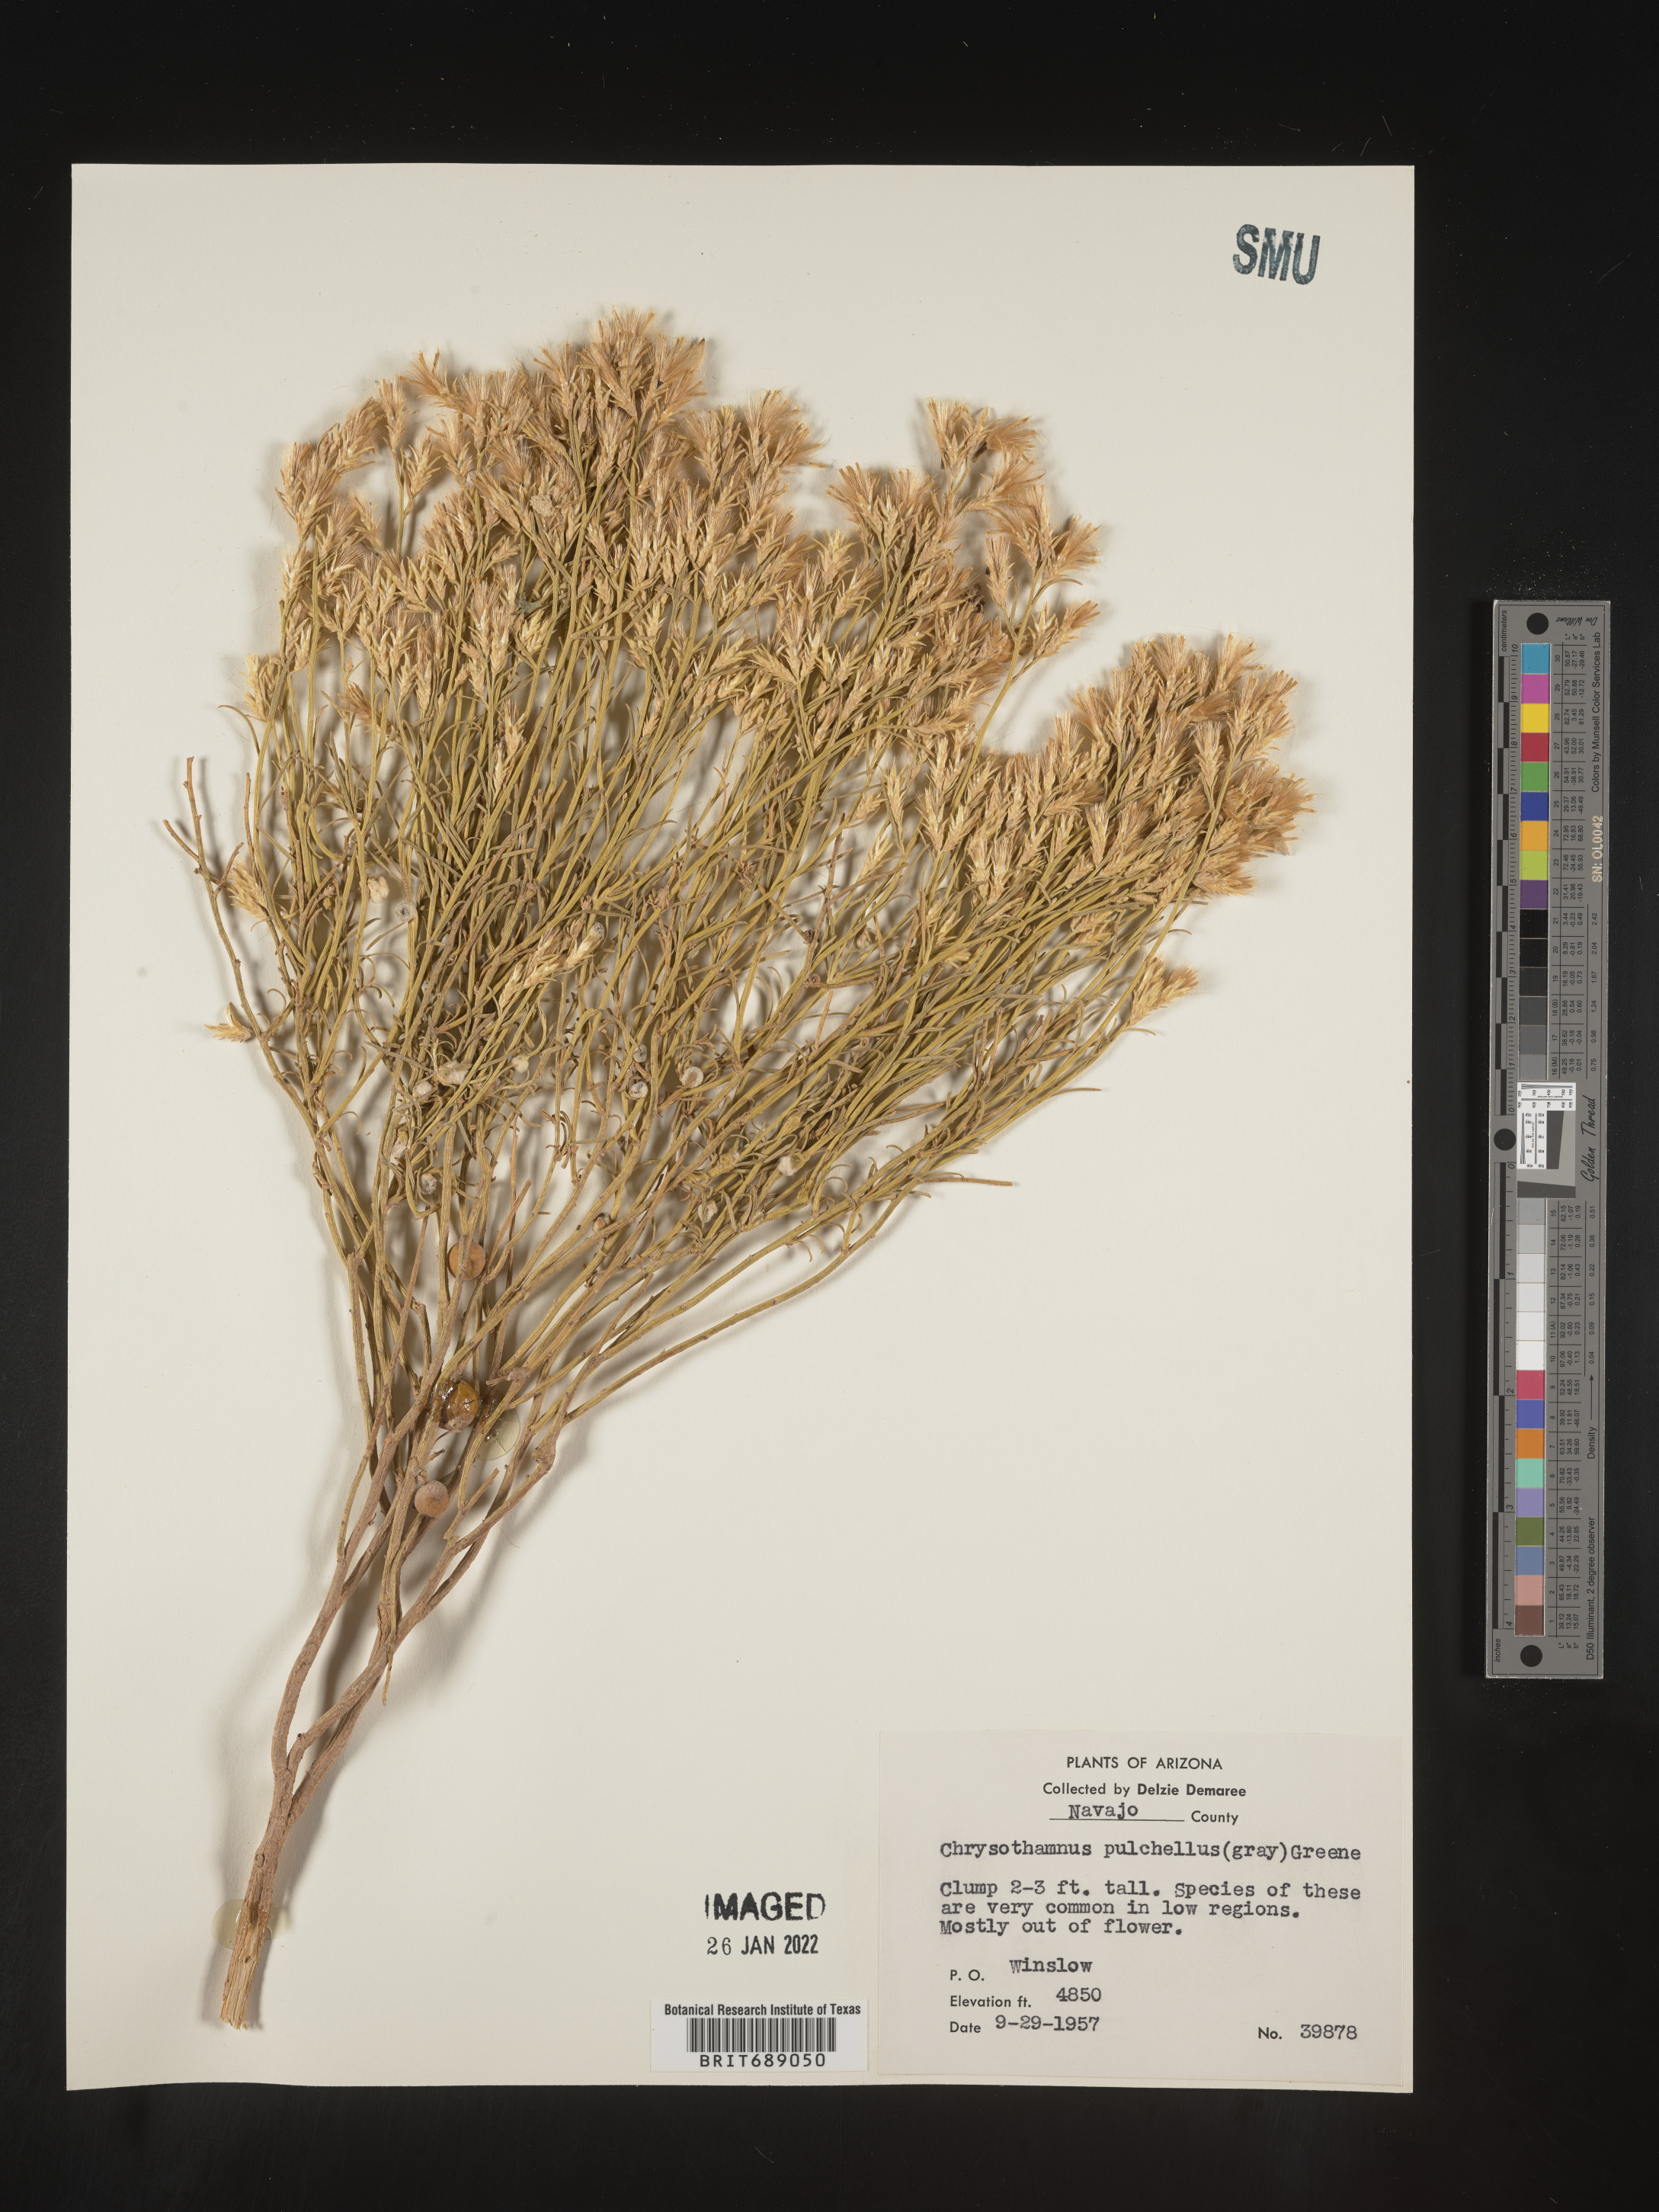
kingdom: Plantae
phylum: Tracheophyta
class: Magnoliopsida
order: Asterales
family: Asteraceae
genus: Chrysothamnus
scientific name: Chrysothamnus
